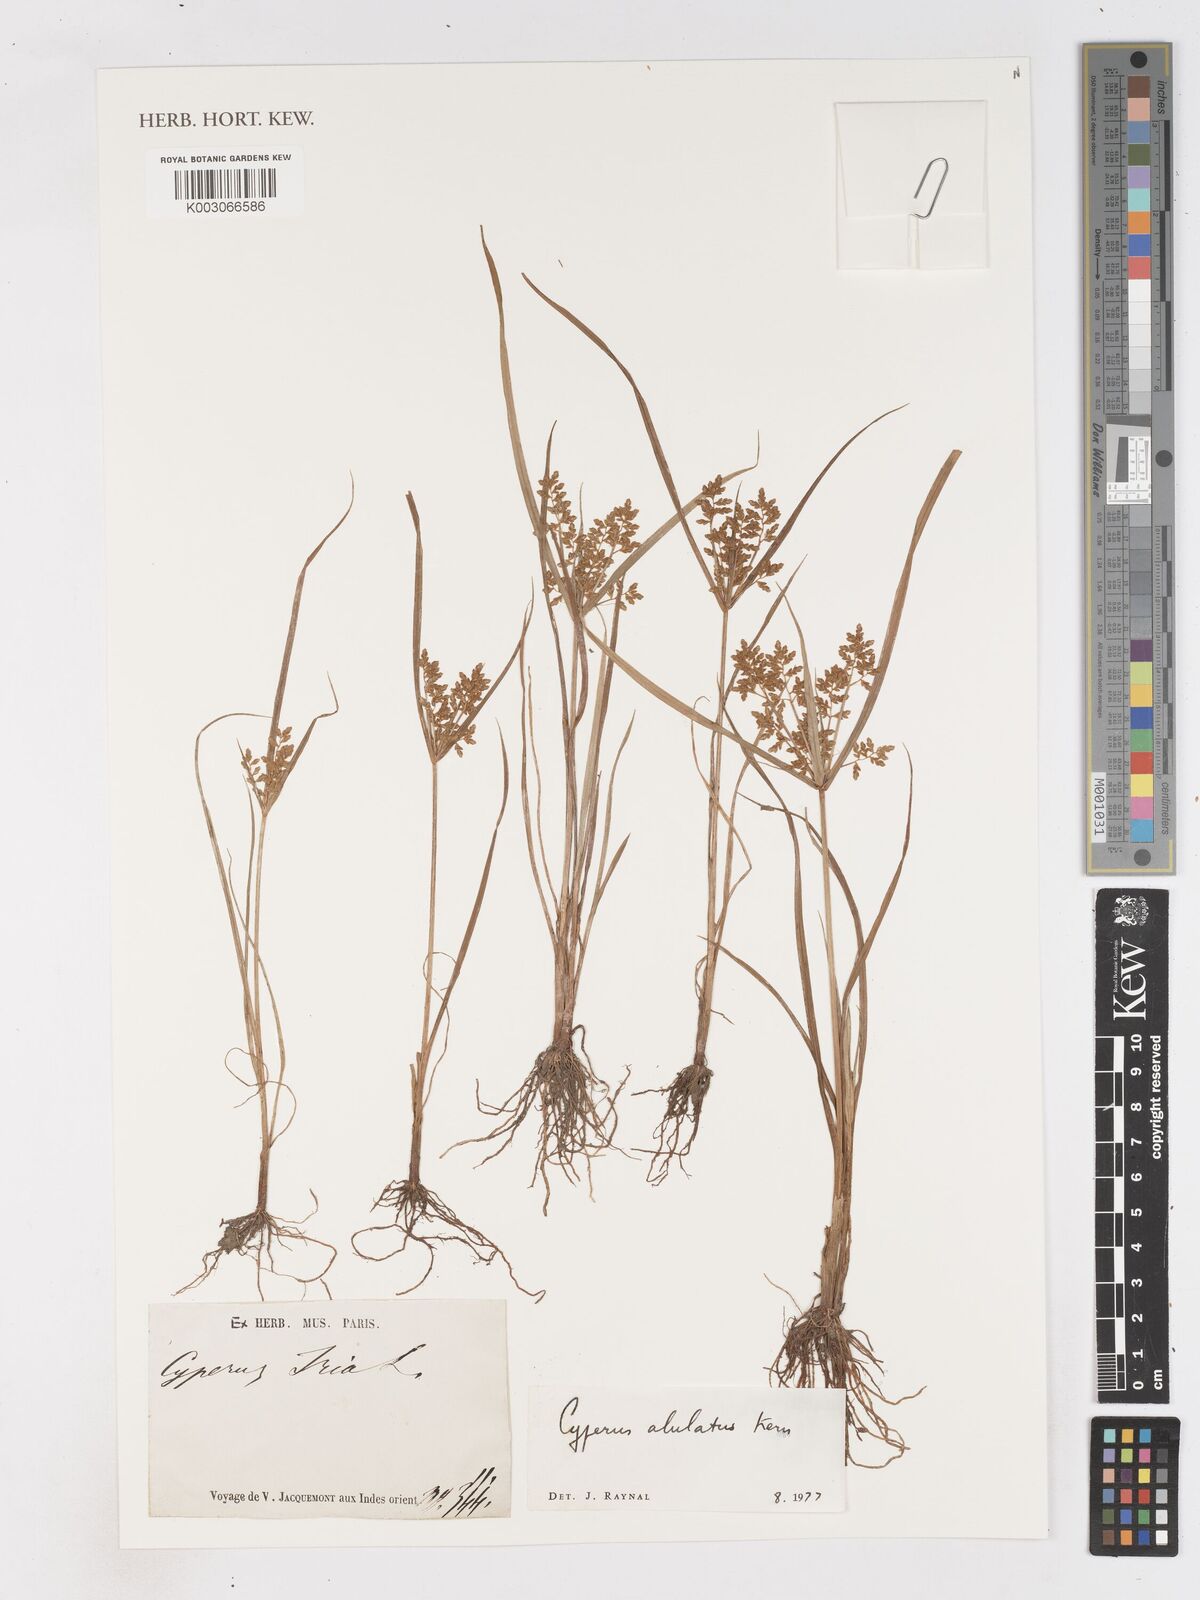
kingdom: Plantae
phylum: Tracheophyta
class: Liliopsida
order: Poales
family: Cyperaceae
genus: Cyperus
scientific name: Cyperus alulatus
